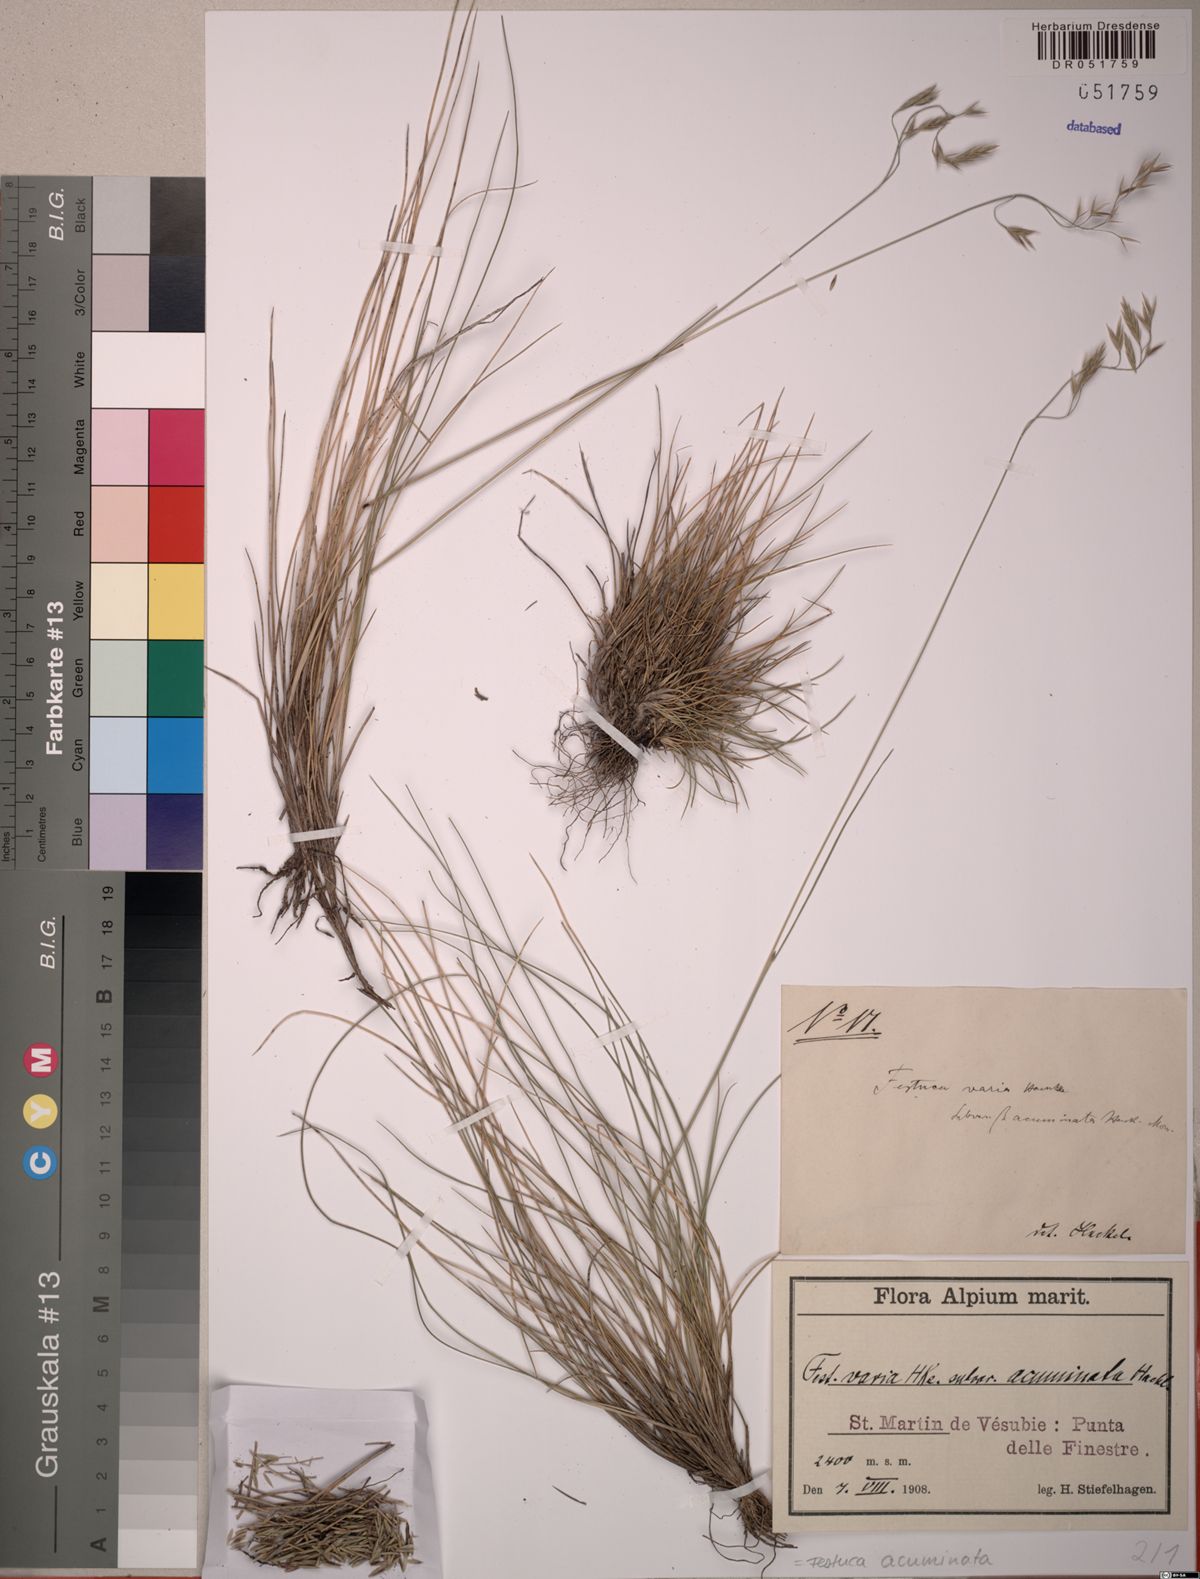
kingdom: Plantae
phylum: Tracheophyta
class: Liliopsida
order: Poales
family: Poaceae
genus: Festuca
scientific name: Festuca acuminata
